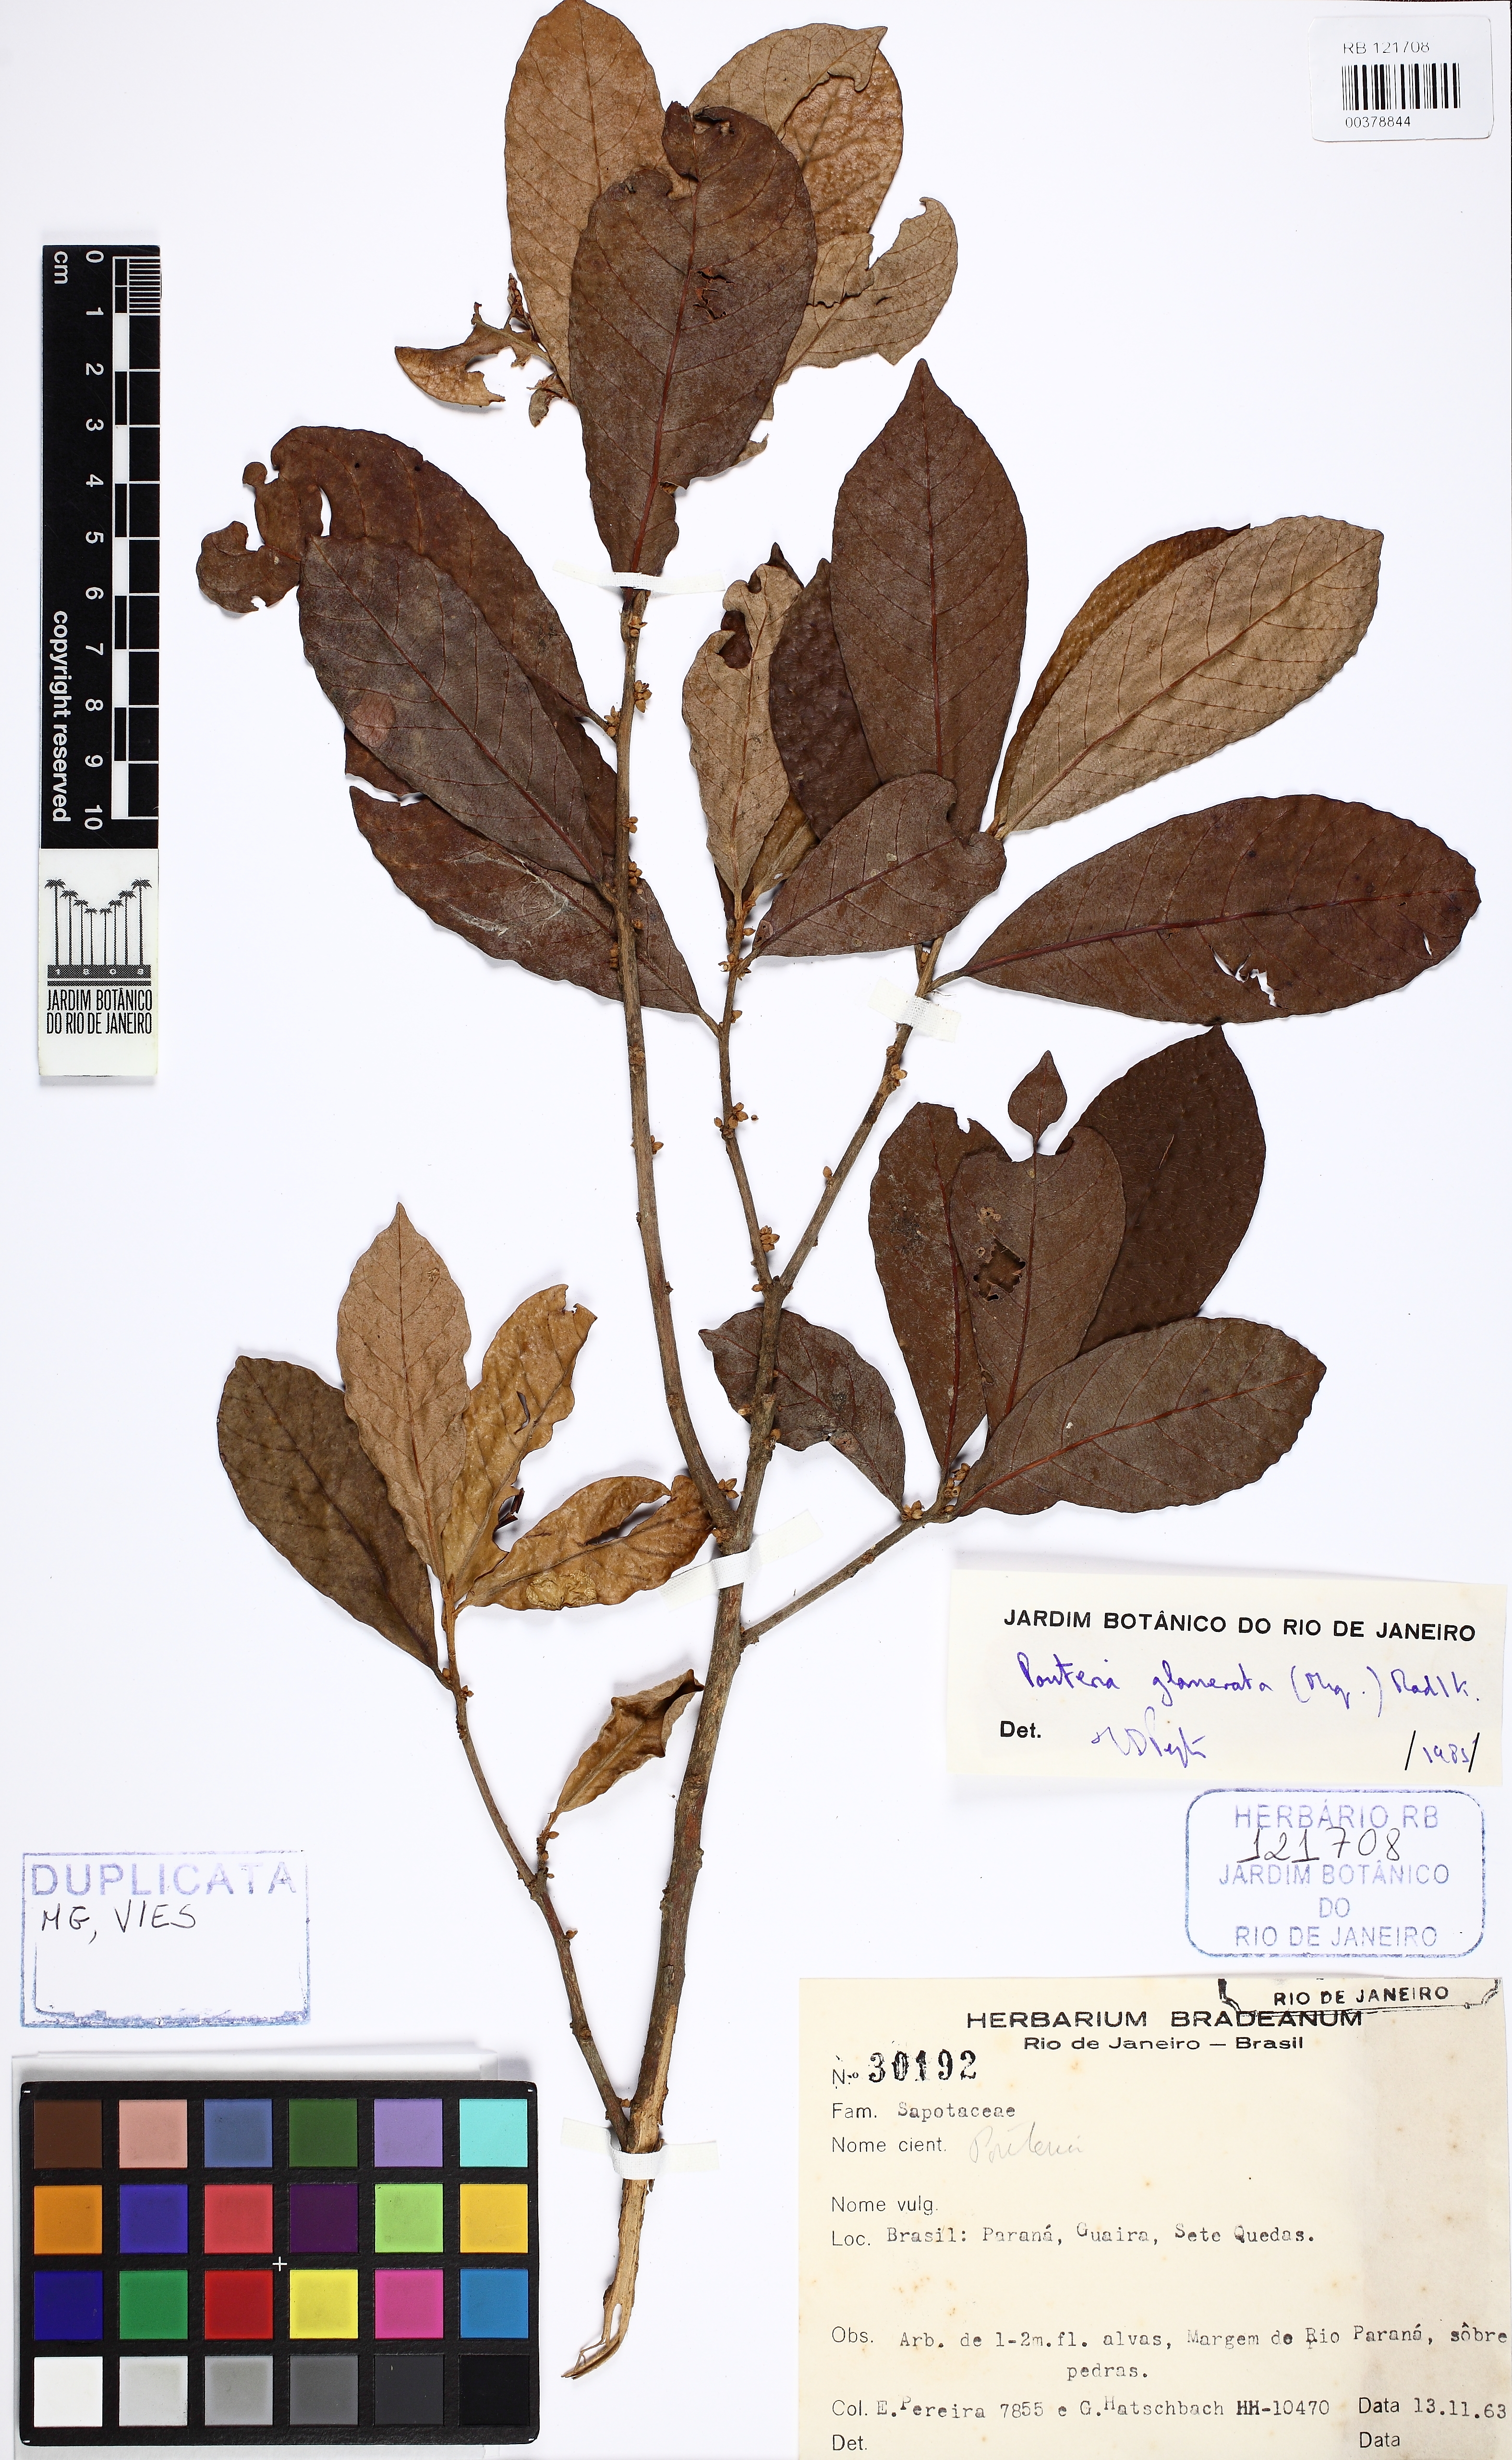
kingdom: Plantae
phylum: Tracheophyta
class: Magnoliopsida
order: Ericales
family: Sapotaceae
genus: Pouteria
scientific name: Pouteria glomerata
